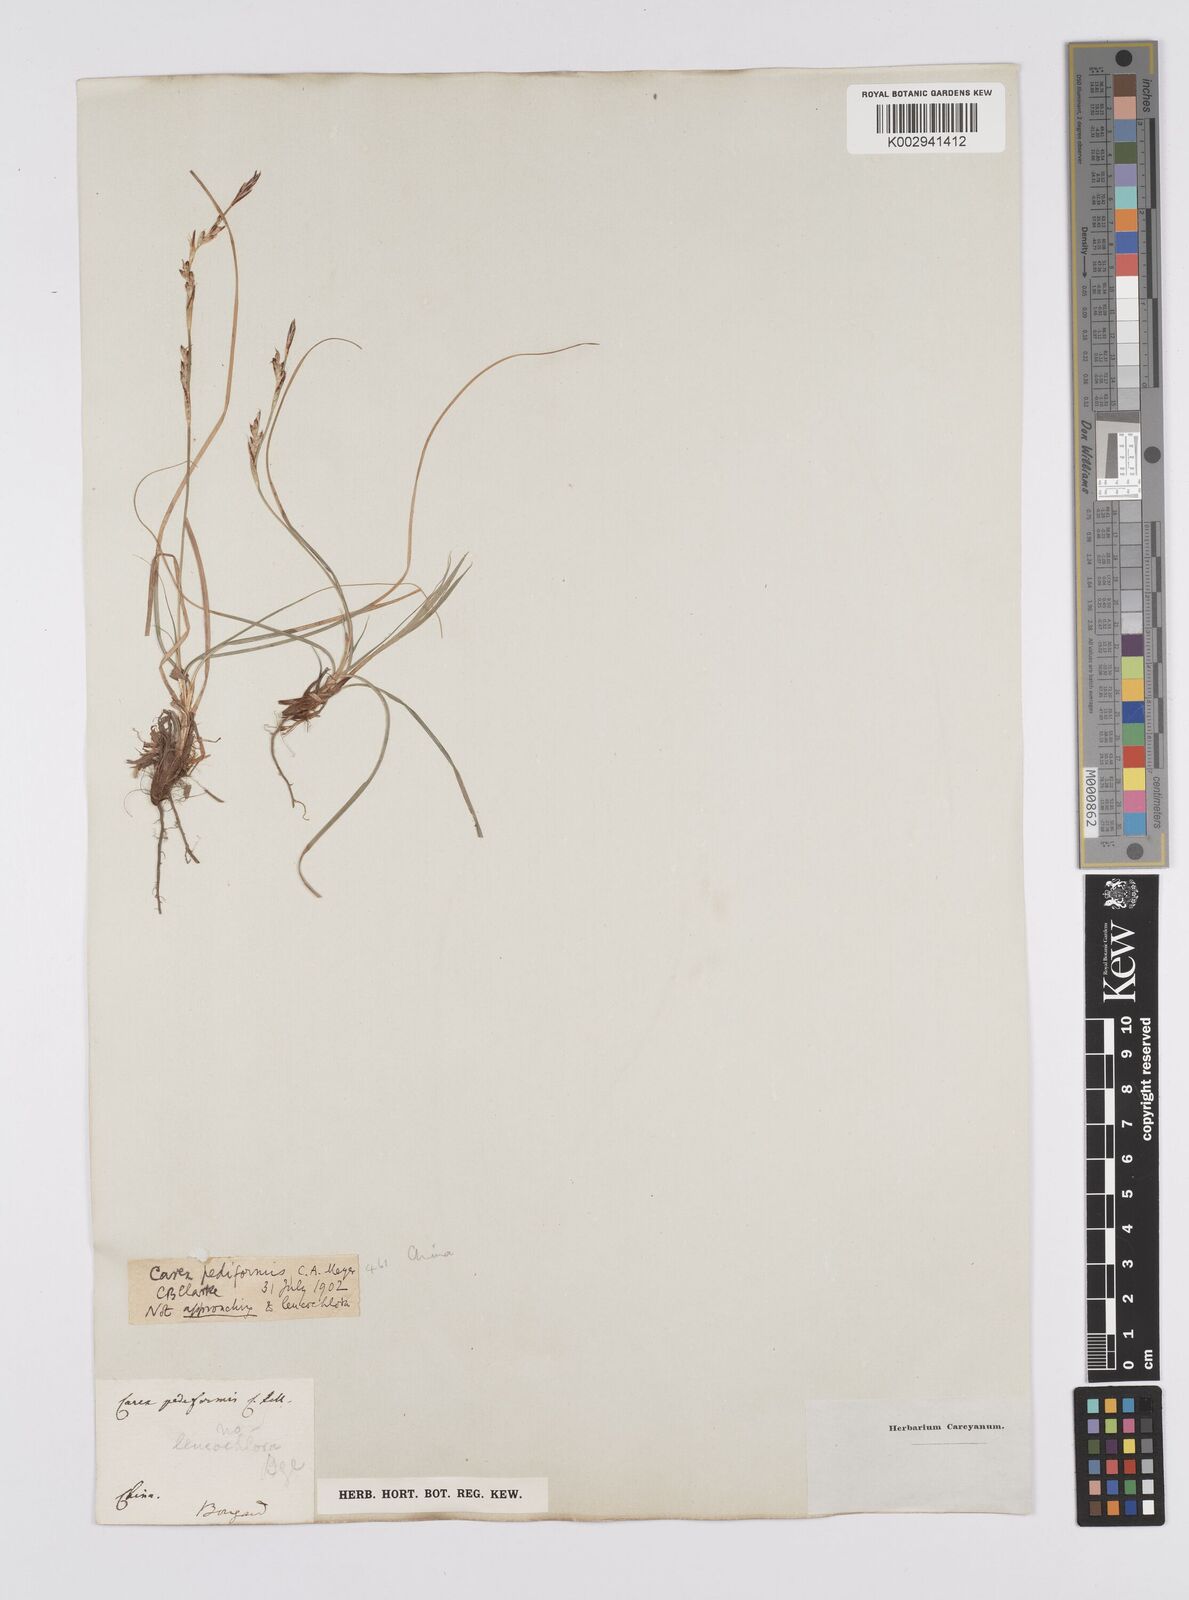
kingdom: Plantae
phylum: Tracheophyta
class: Liliopsida
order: Poales
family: Cyperaceae
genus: Carex
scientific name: Carex pediformis
